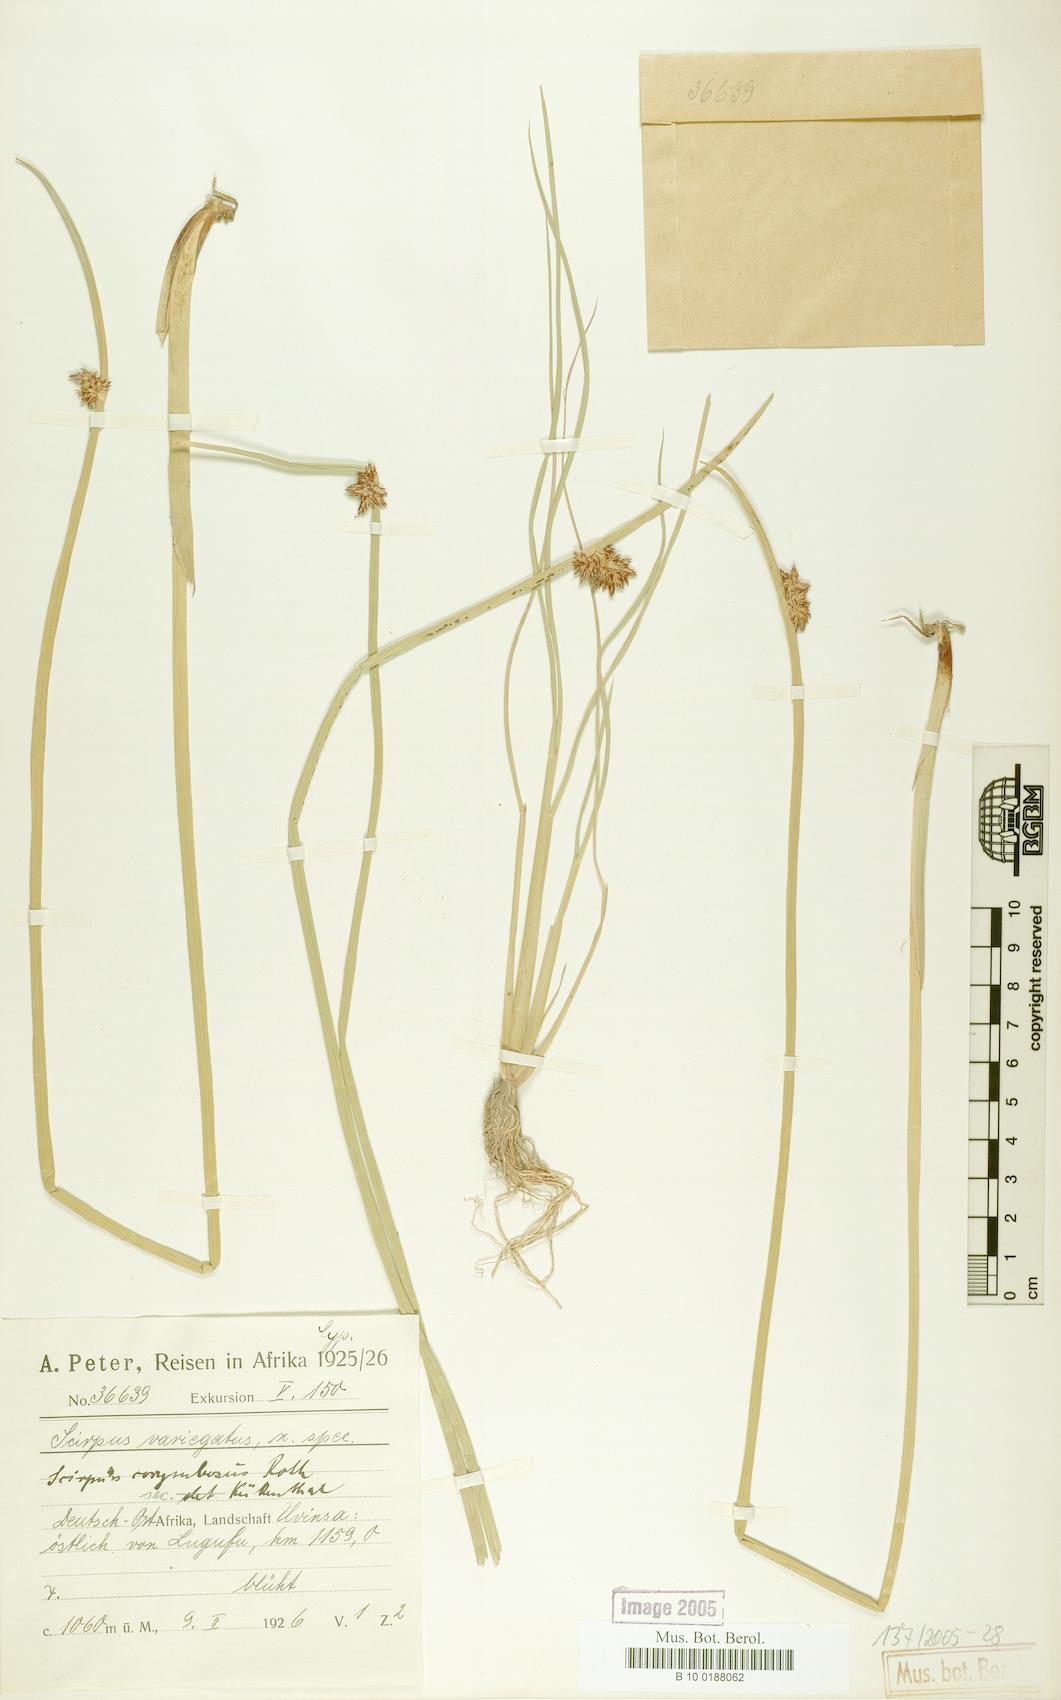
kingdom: Plantae
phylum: Tracheophyta
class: Liliopsida
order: Poales
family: Cyperaceae
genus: Schoenoplectiella
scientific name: Schoenoplectiella confusa
